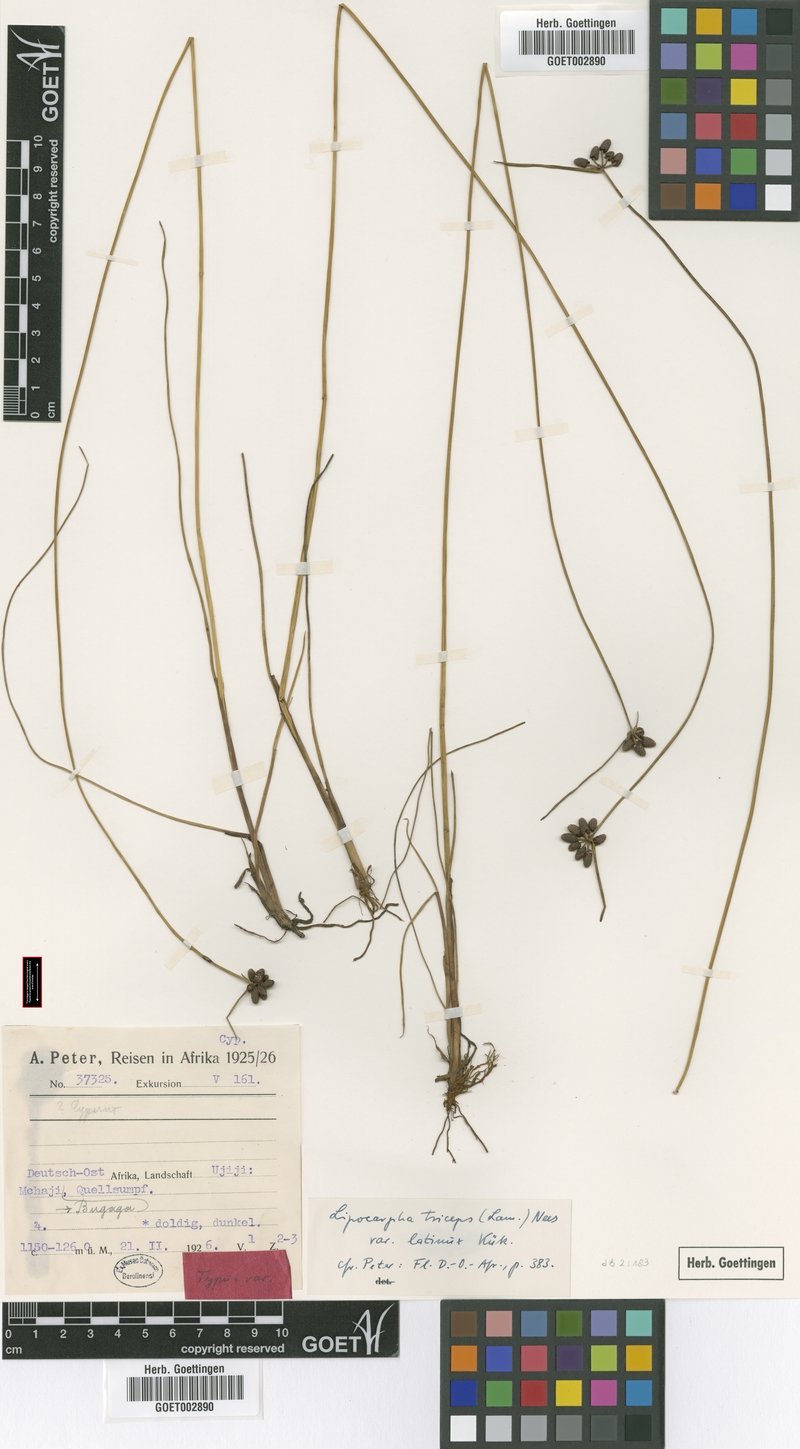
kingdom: Plantae
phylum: Tracheophyta
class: Liliopsida
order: Poales
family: Cyperaceae
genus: Cyperus
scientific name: Cyperus abietinus
